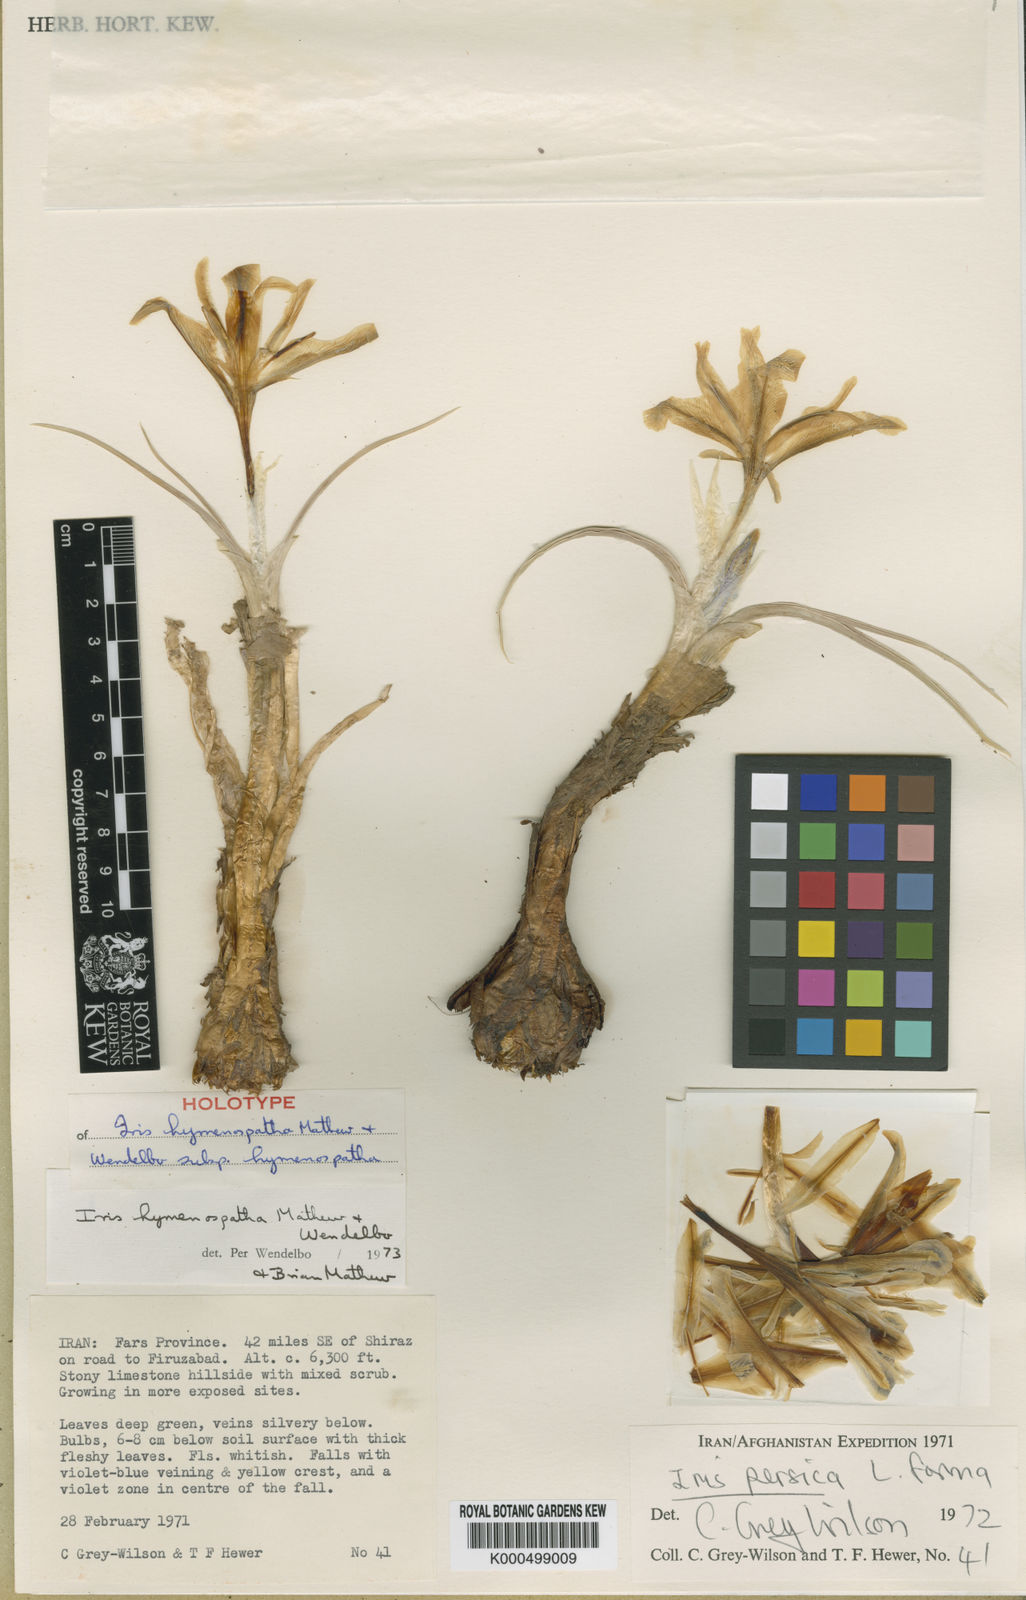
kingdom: Plantae
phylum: Tracheophyta
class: Liliopsida
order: Asparagales
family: Iridaceae
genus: Iris
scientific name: Iris hymenospatha
